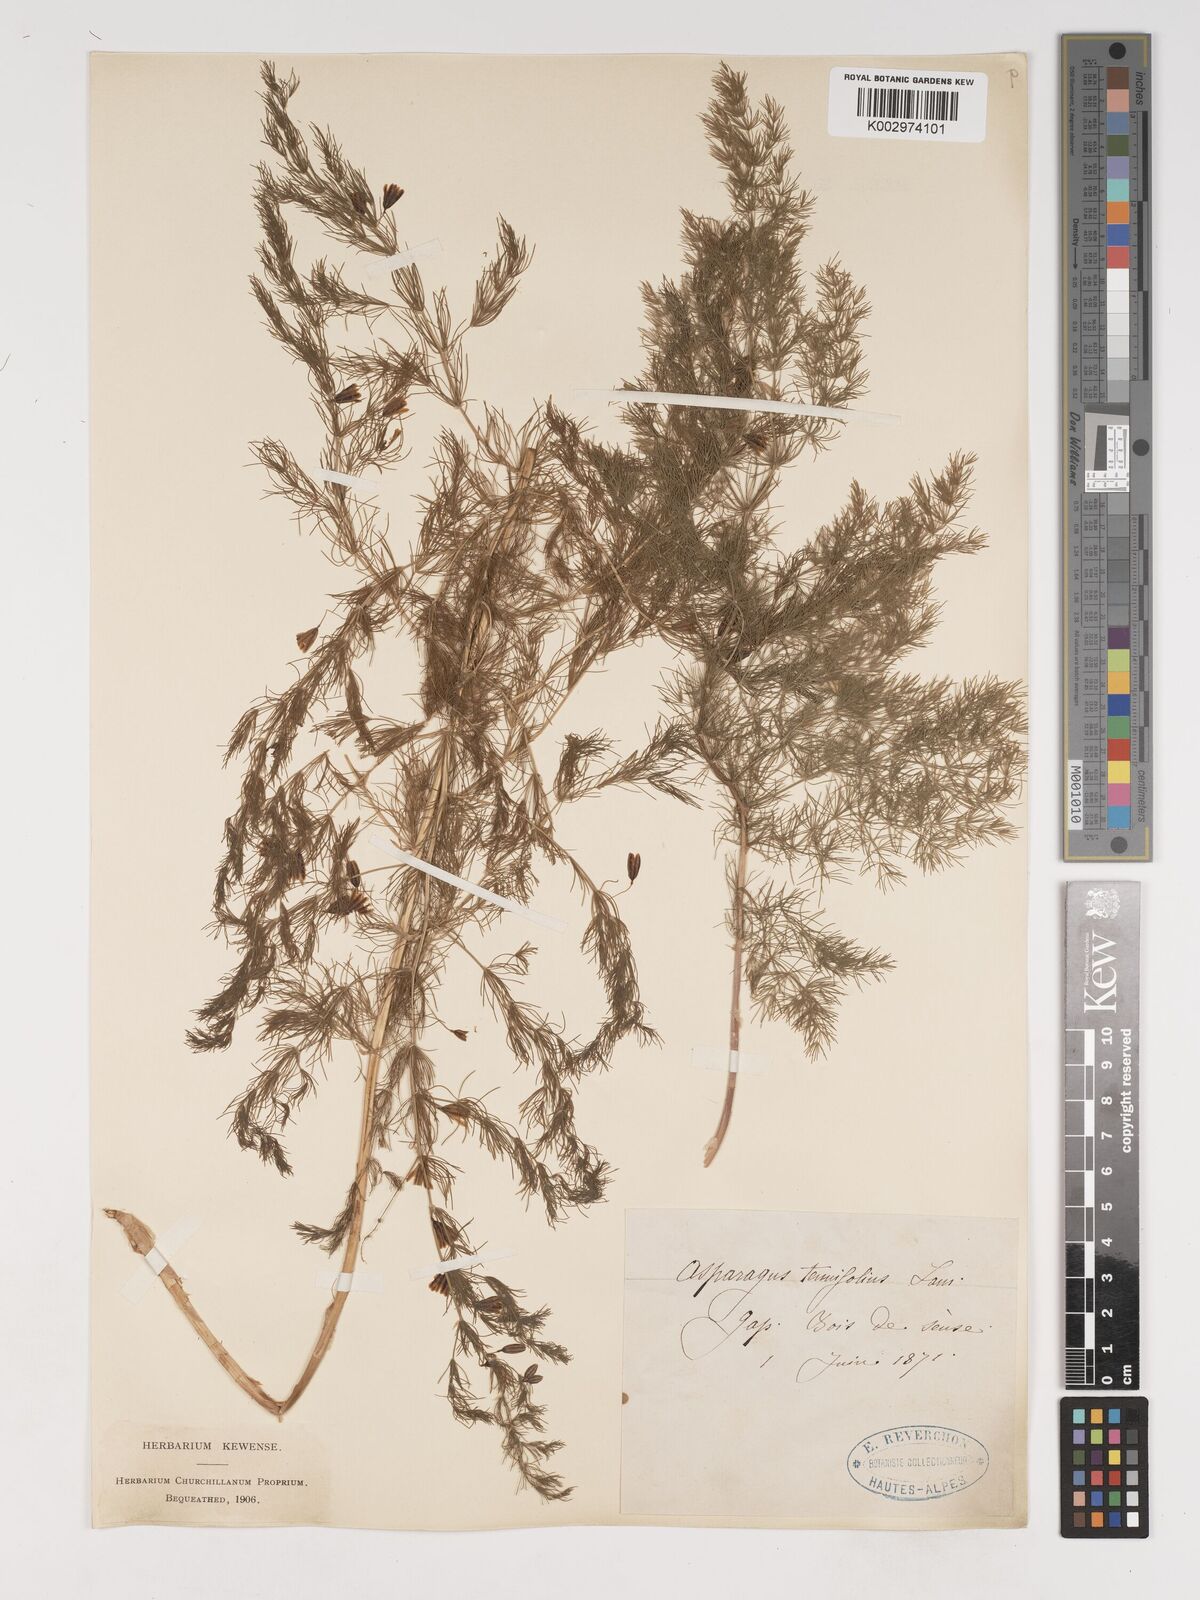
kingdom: Plantae
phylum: Tracheophyta
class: Liliopsida
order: Asparagales
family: Asparagaceae
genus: Asparagus
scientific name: Asparagus tenuifolius
